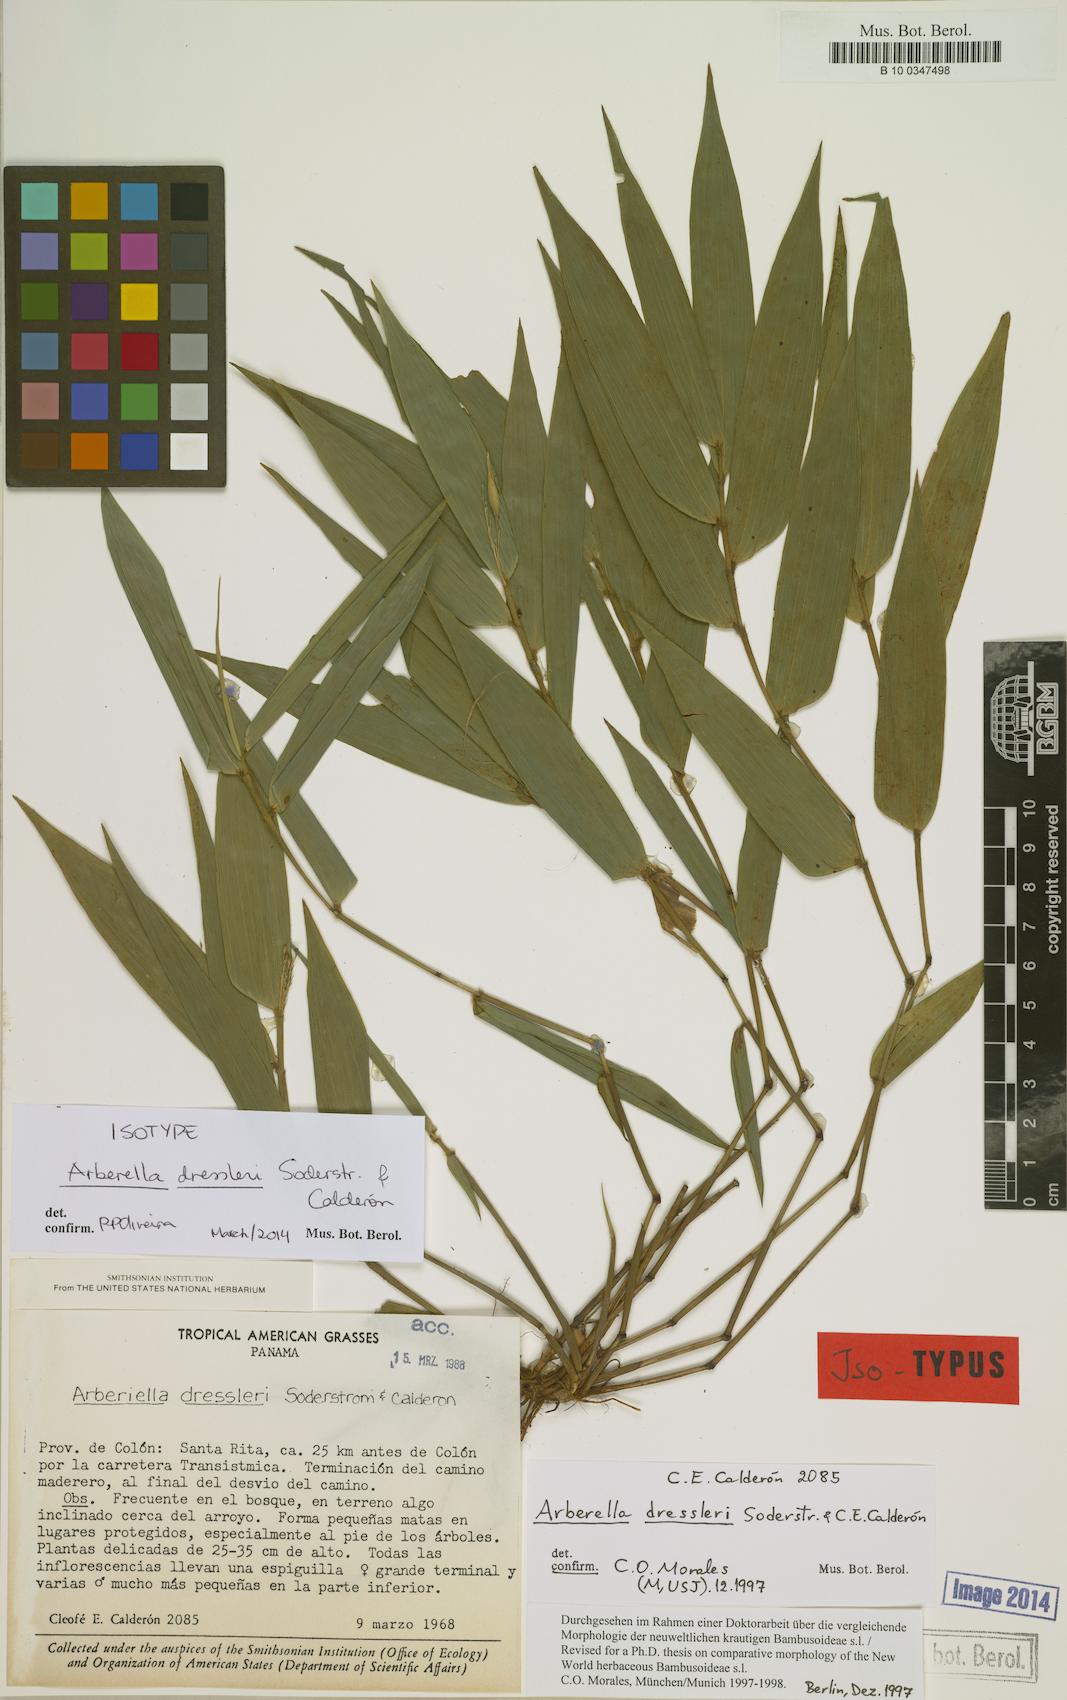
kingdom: Plantae
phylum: Tracheophyta
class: Liliopsida
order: Poales
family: Poaceae
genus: Arberella
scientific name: Arberella dressleri
